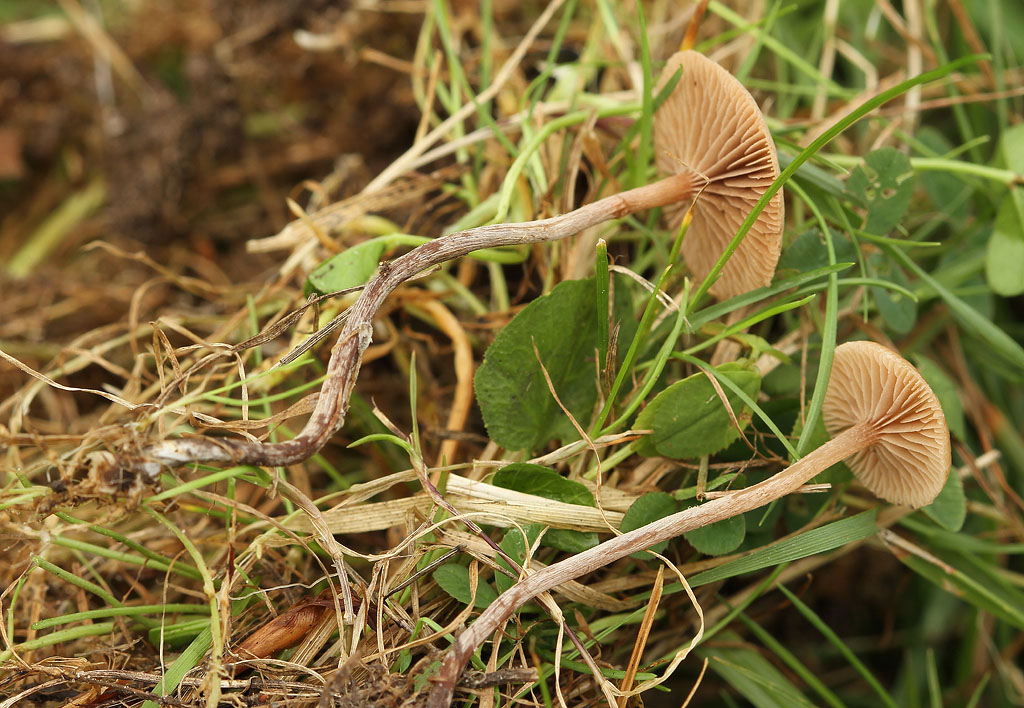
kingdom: Fungi
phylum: Basidiomycota
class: Agaricomycetes
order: Agaricales
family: Strophariaceae
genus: Deconica
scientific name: Deconica crobula
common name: træflis-stråhat
